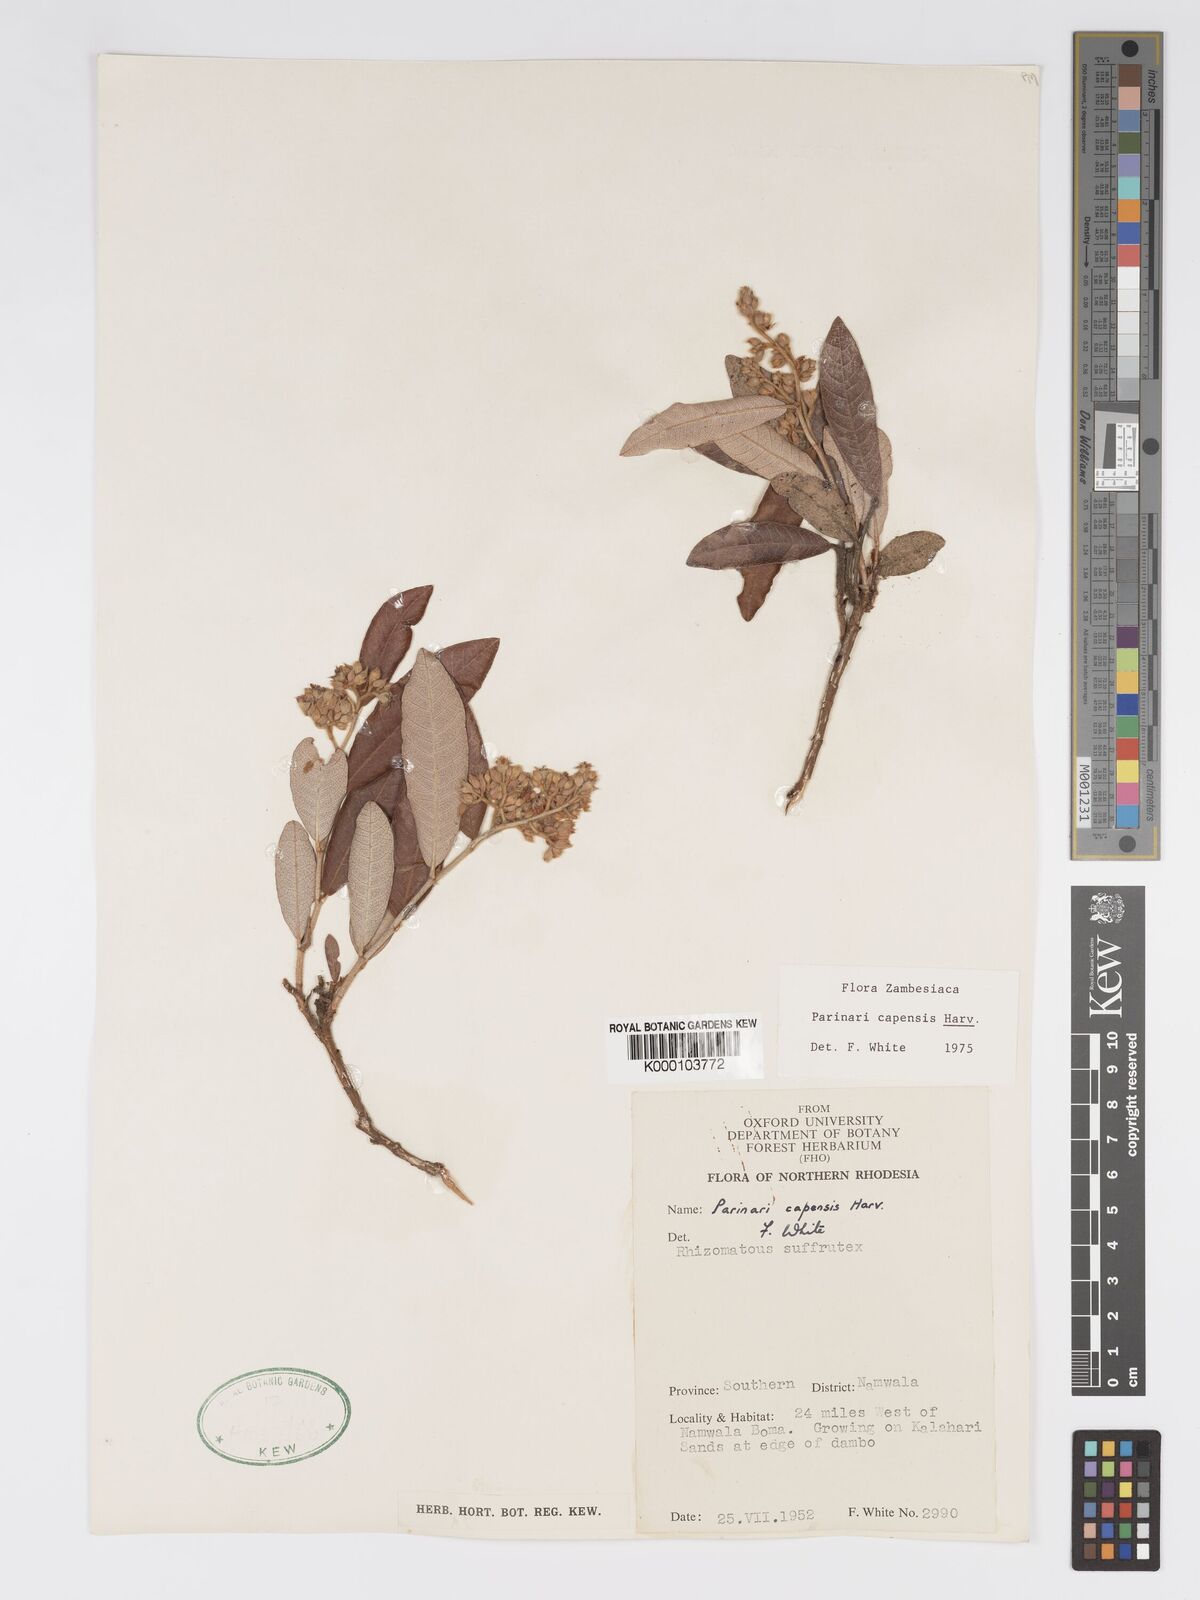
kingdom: Plantae
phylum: Tracheophyta
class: Magnoliopsida
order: Malpighiales
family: Chrysobalanaceae
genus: Parinari
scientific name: Parinari capensis
